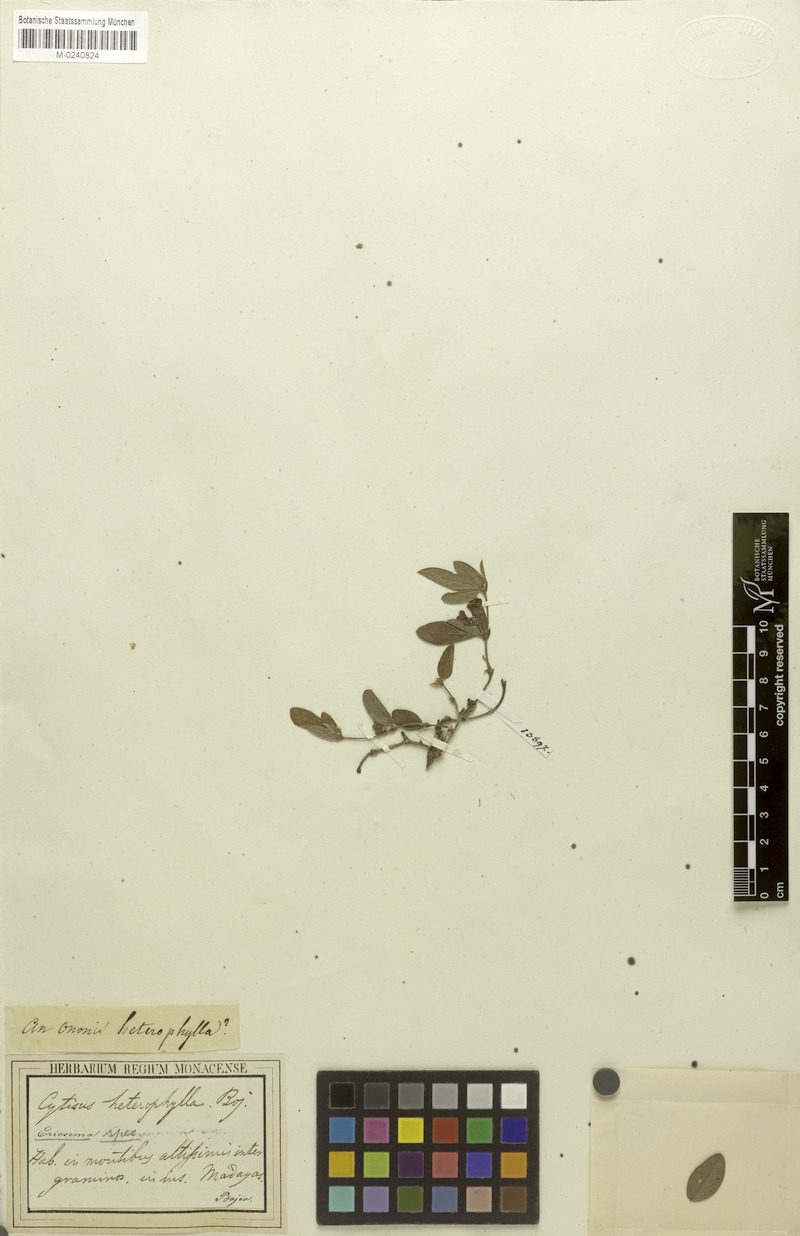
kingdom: Plantae
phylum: Tracheophyta
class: Magnoliopsida
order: Fabales
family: Fabaceae
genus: Eriosema
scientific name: Eriosema
